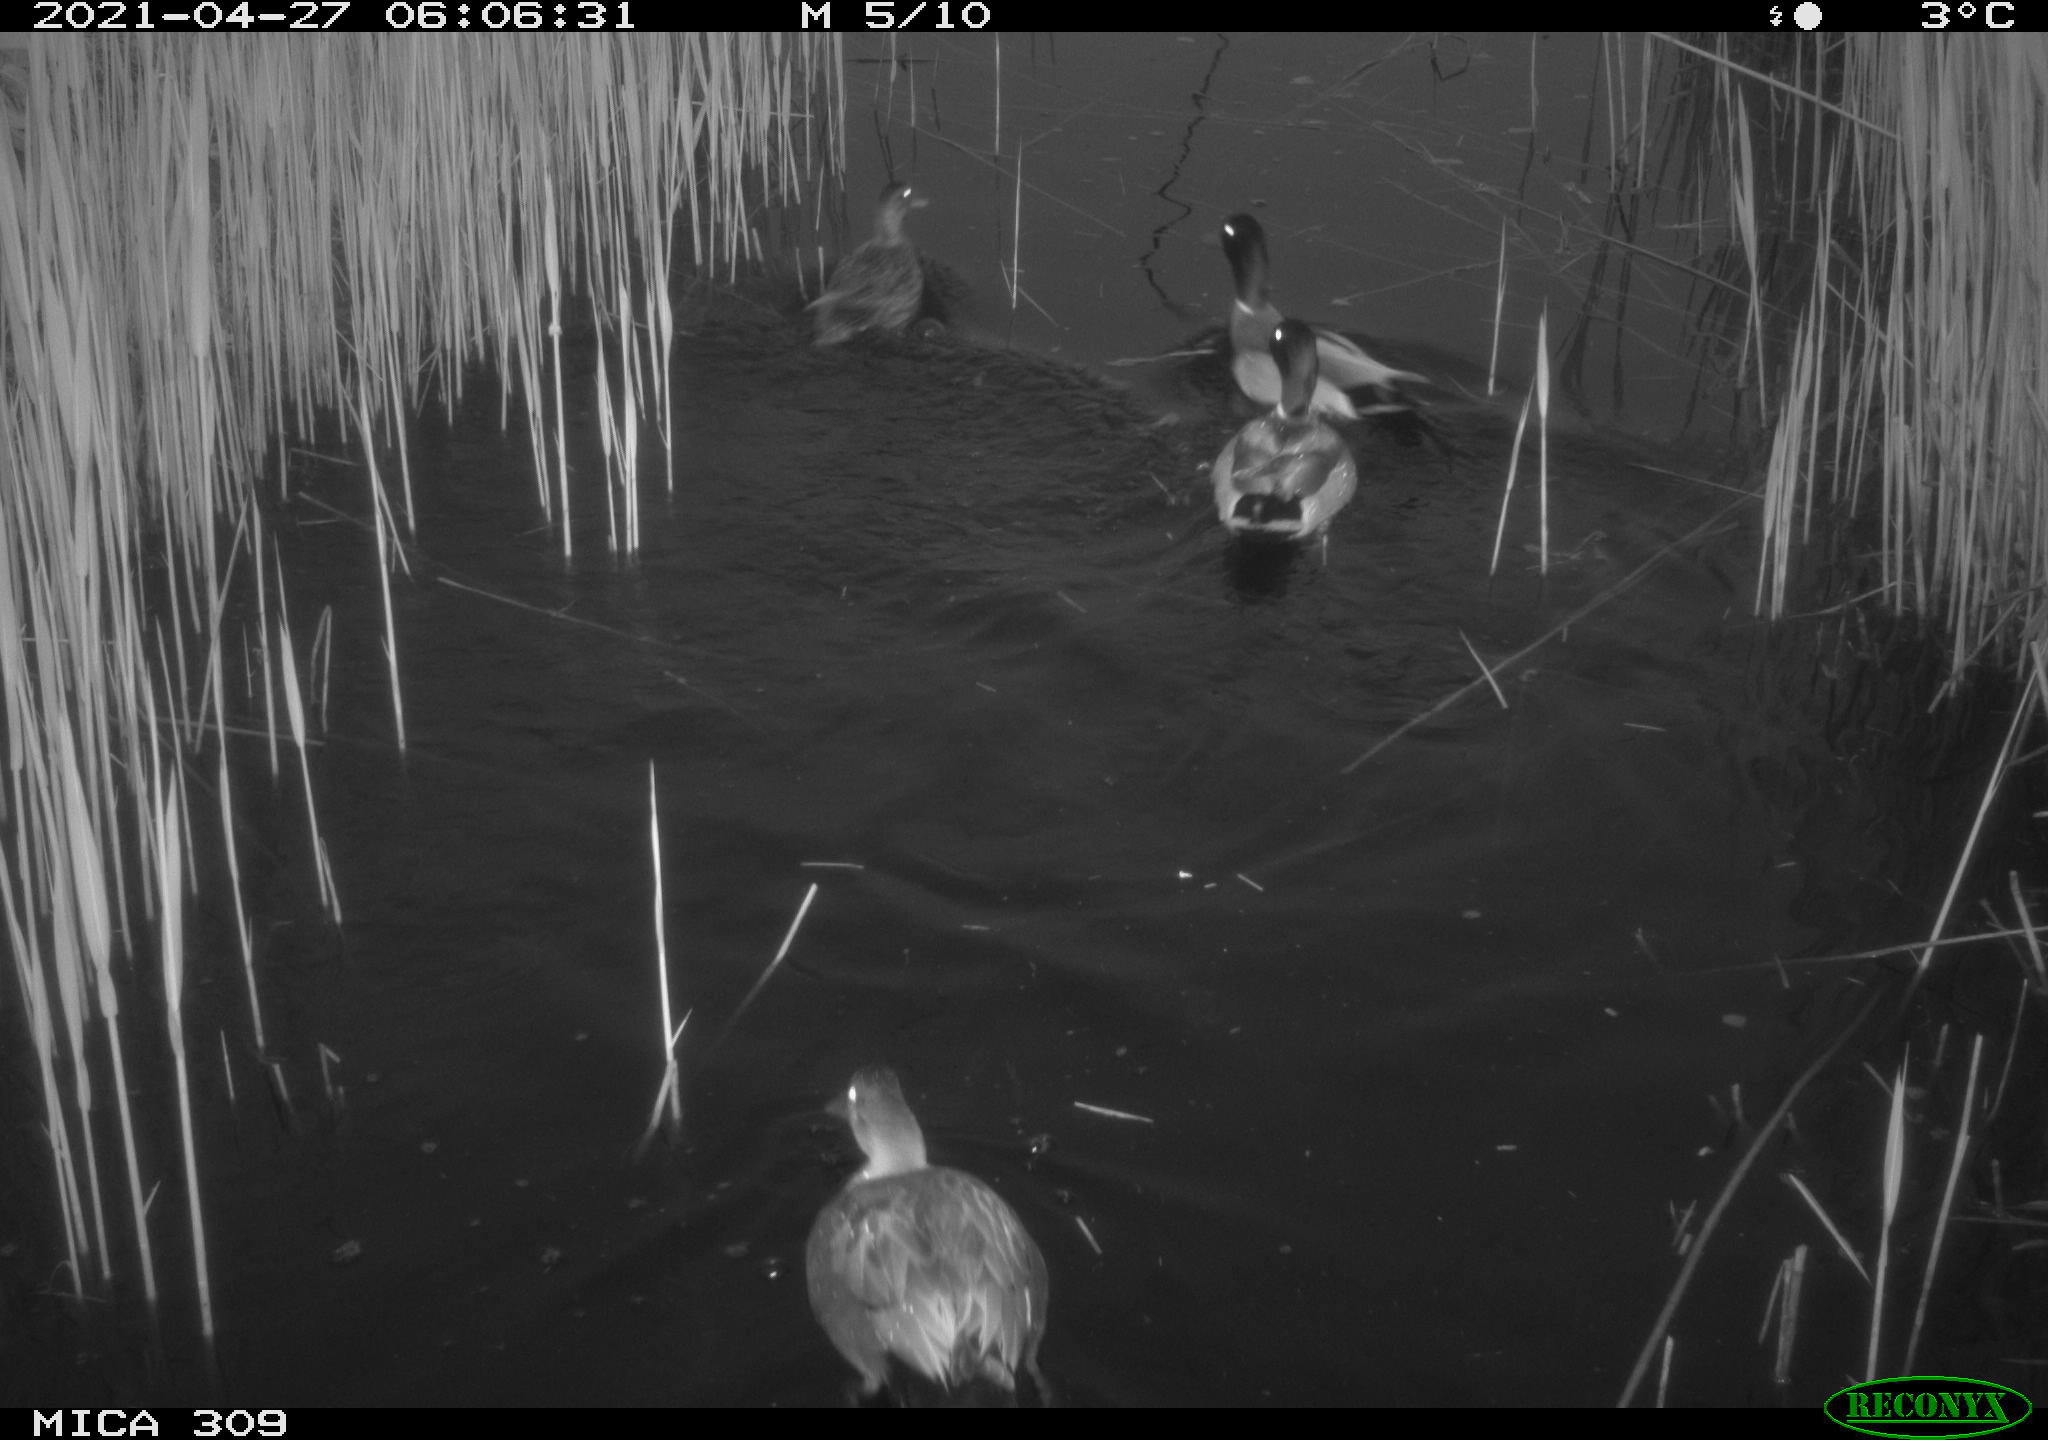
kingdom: Animalia
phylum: Chordata
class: Aves
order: Anseriformes
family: Anatidae
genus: Anas
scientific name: Anas platyrhynchos
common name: Mallard
